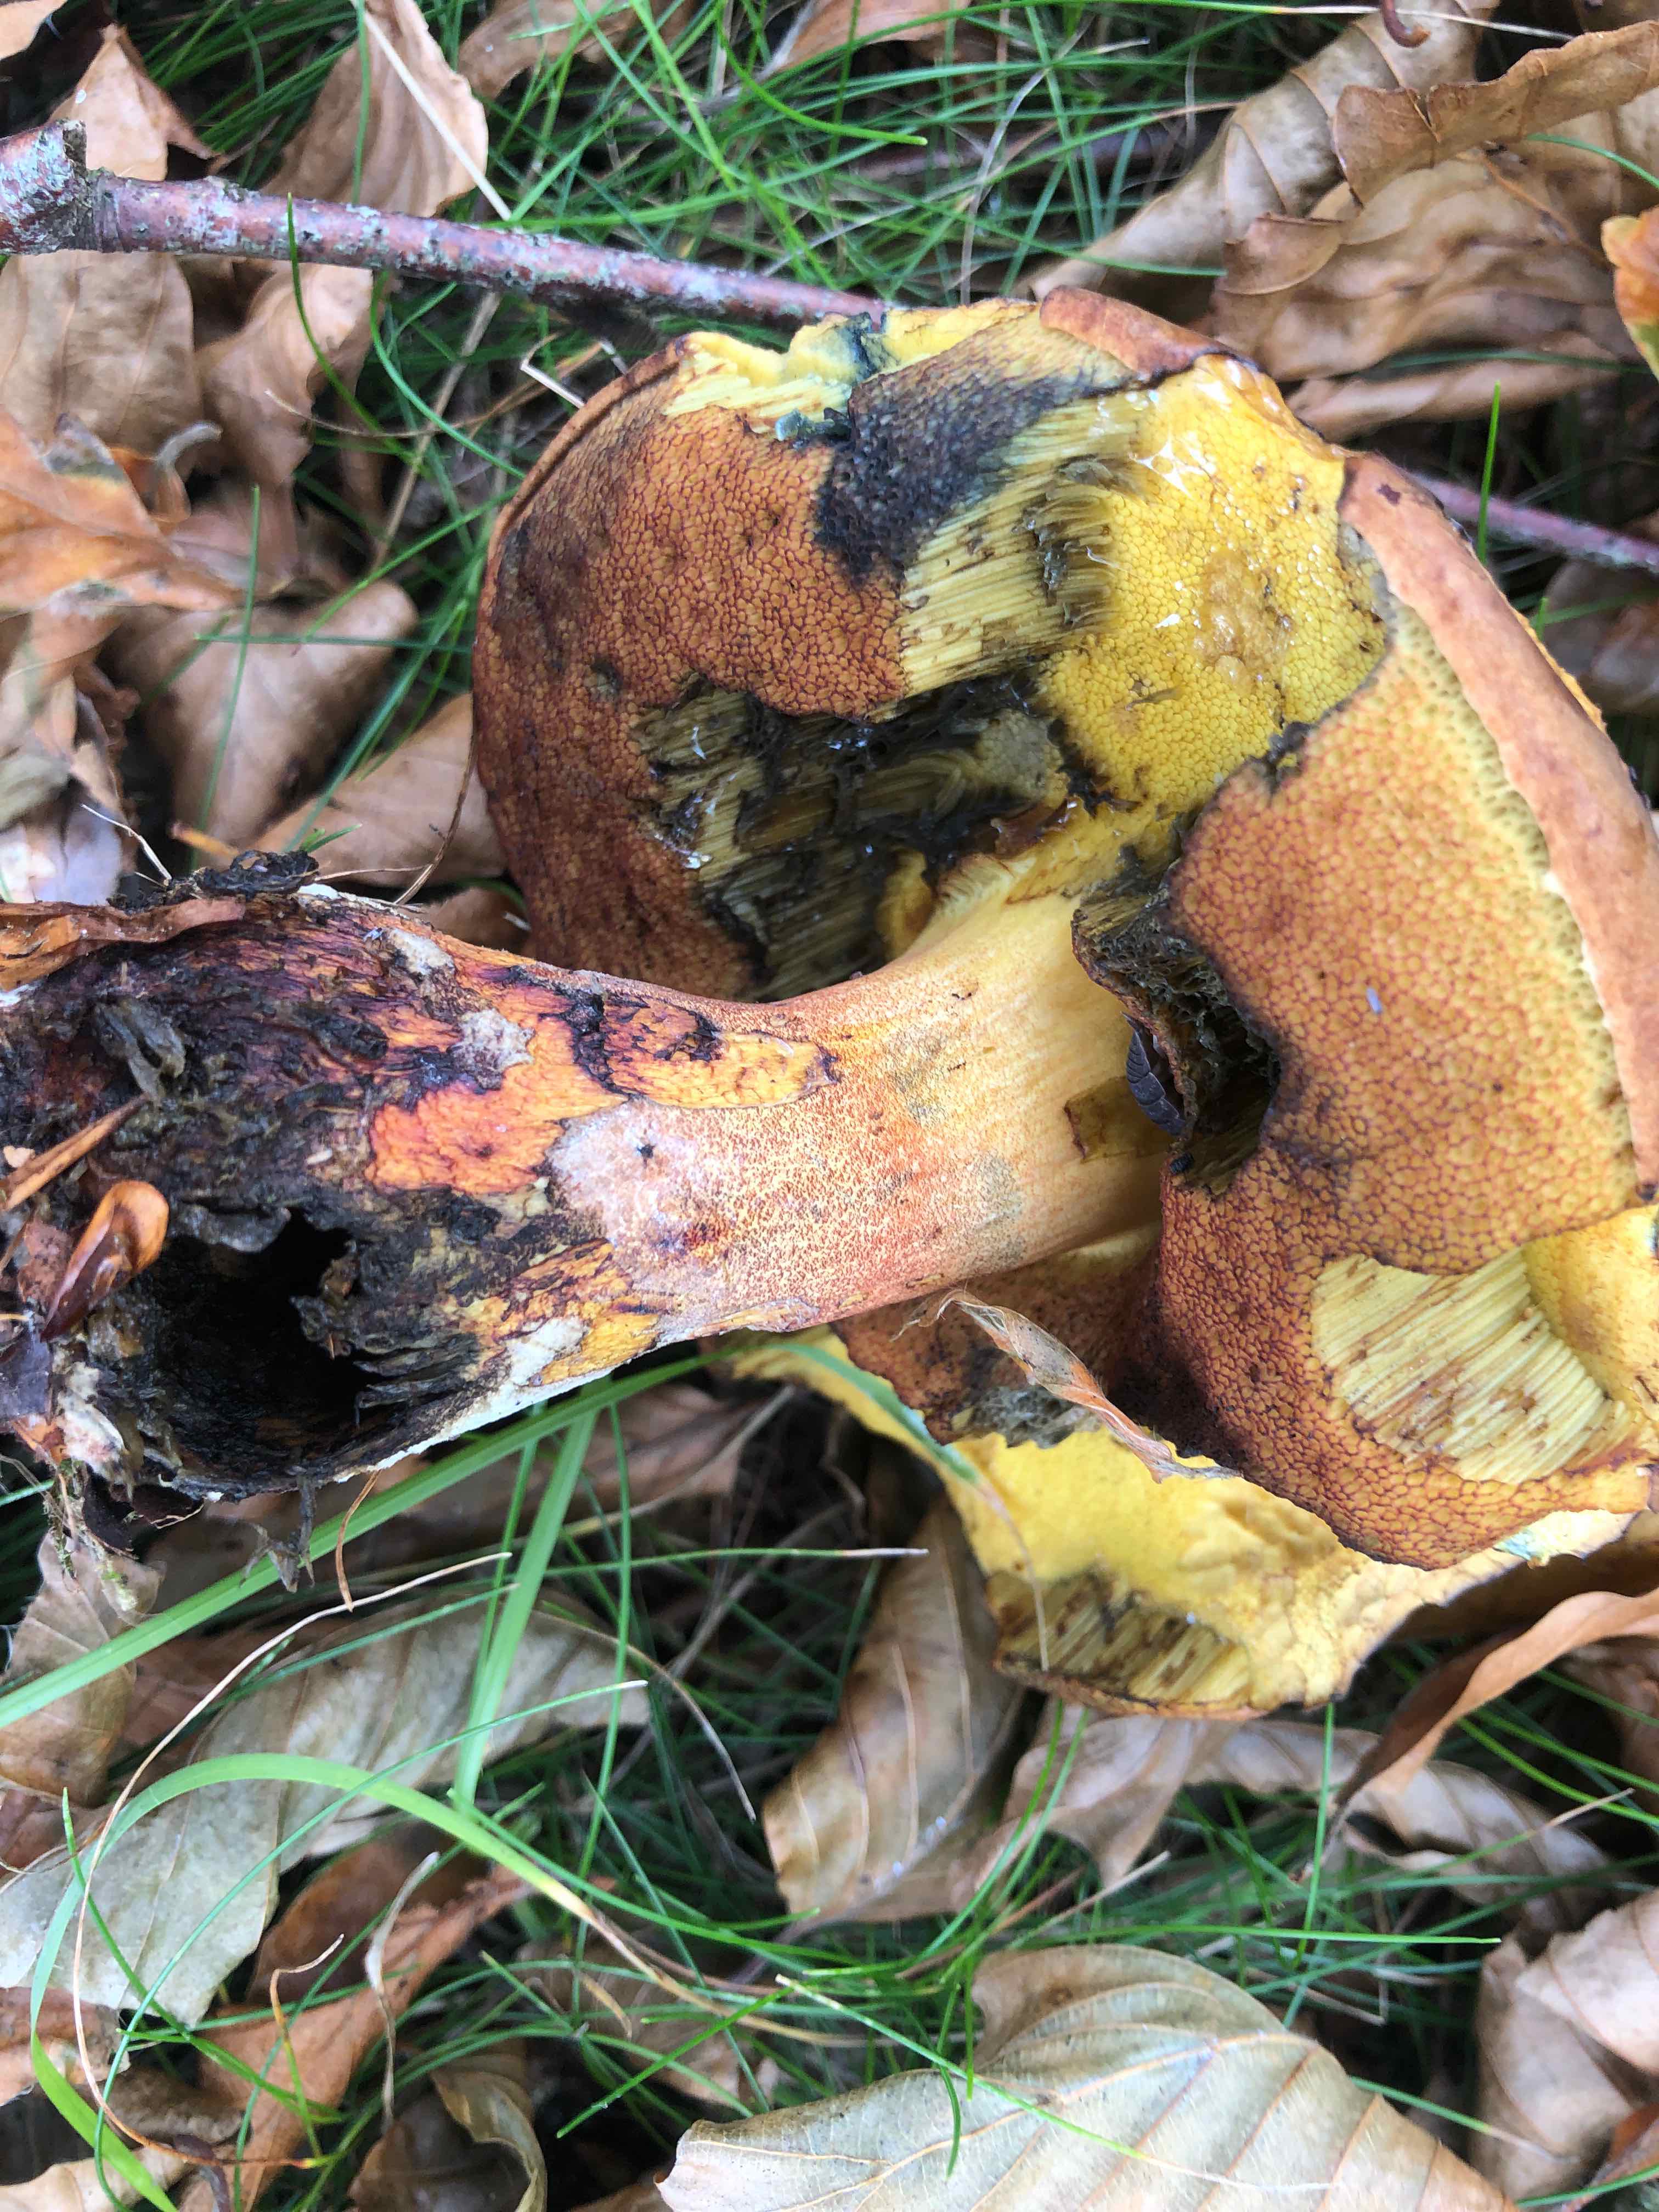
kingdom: Fungi
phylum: Basidiomycota
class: Agaricomycetes
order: Boletales
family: Boletaceae
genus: Neoboletus
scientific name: Neoboletus erythropus
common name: punktstokket indigorørhat
